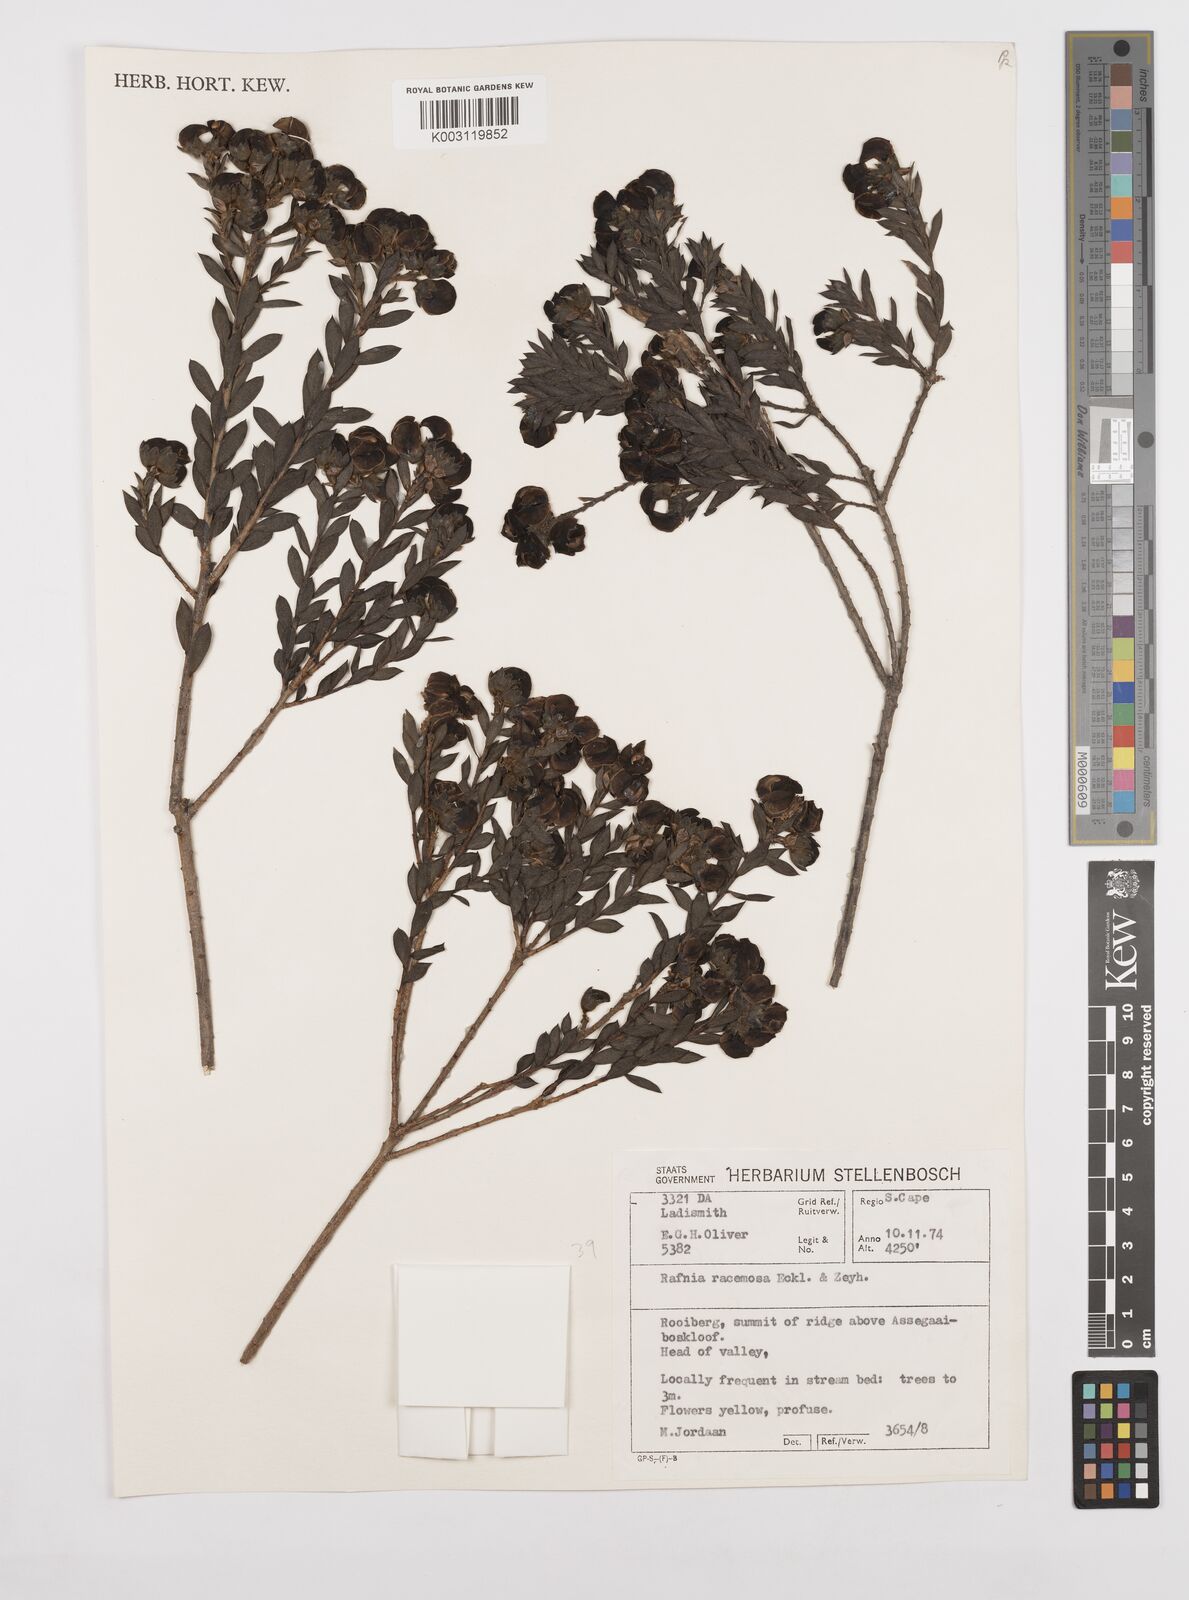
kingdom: Plantae
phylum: Tracheophyta
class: Magnoliopsida
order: Fabales
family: Fabaceae
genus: Liparia
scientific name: Liparia
